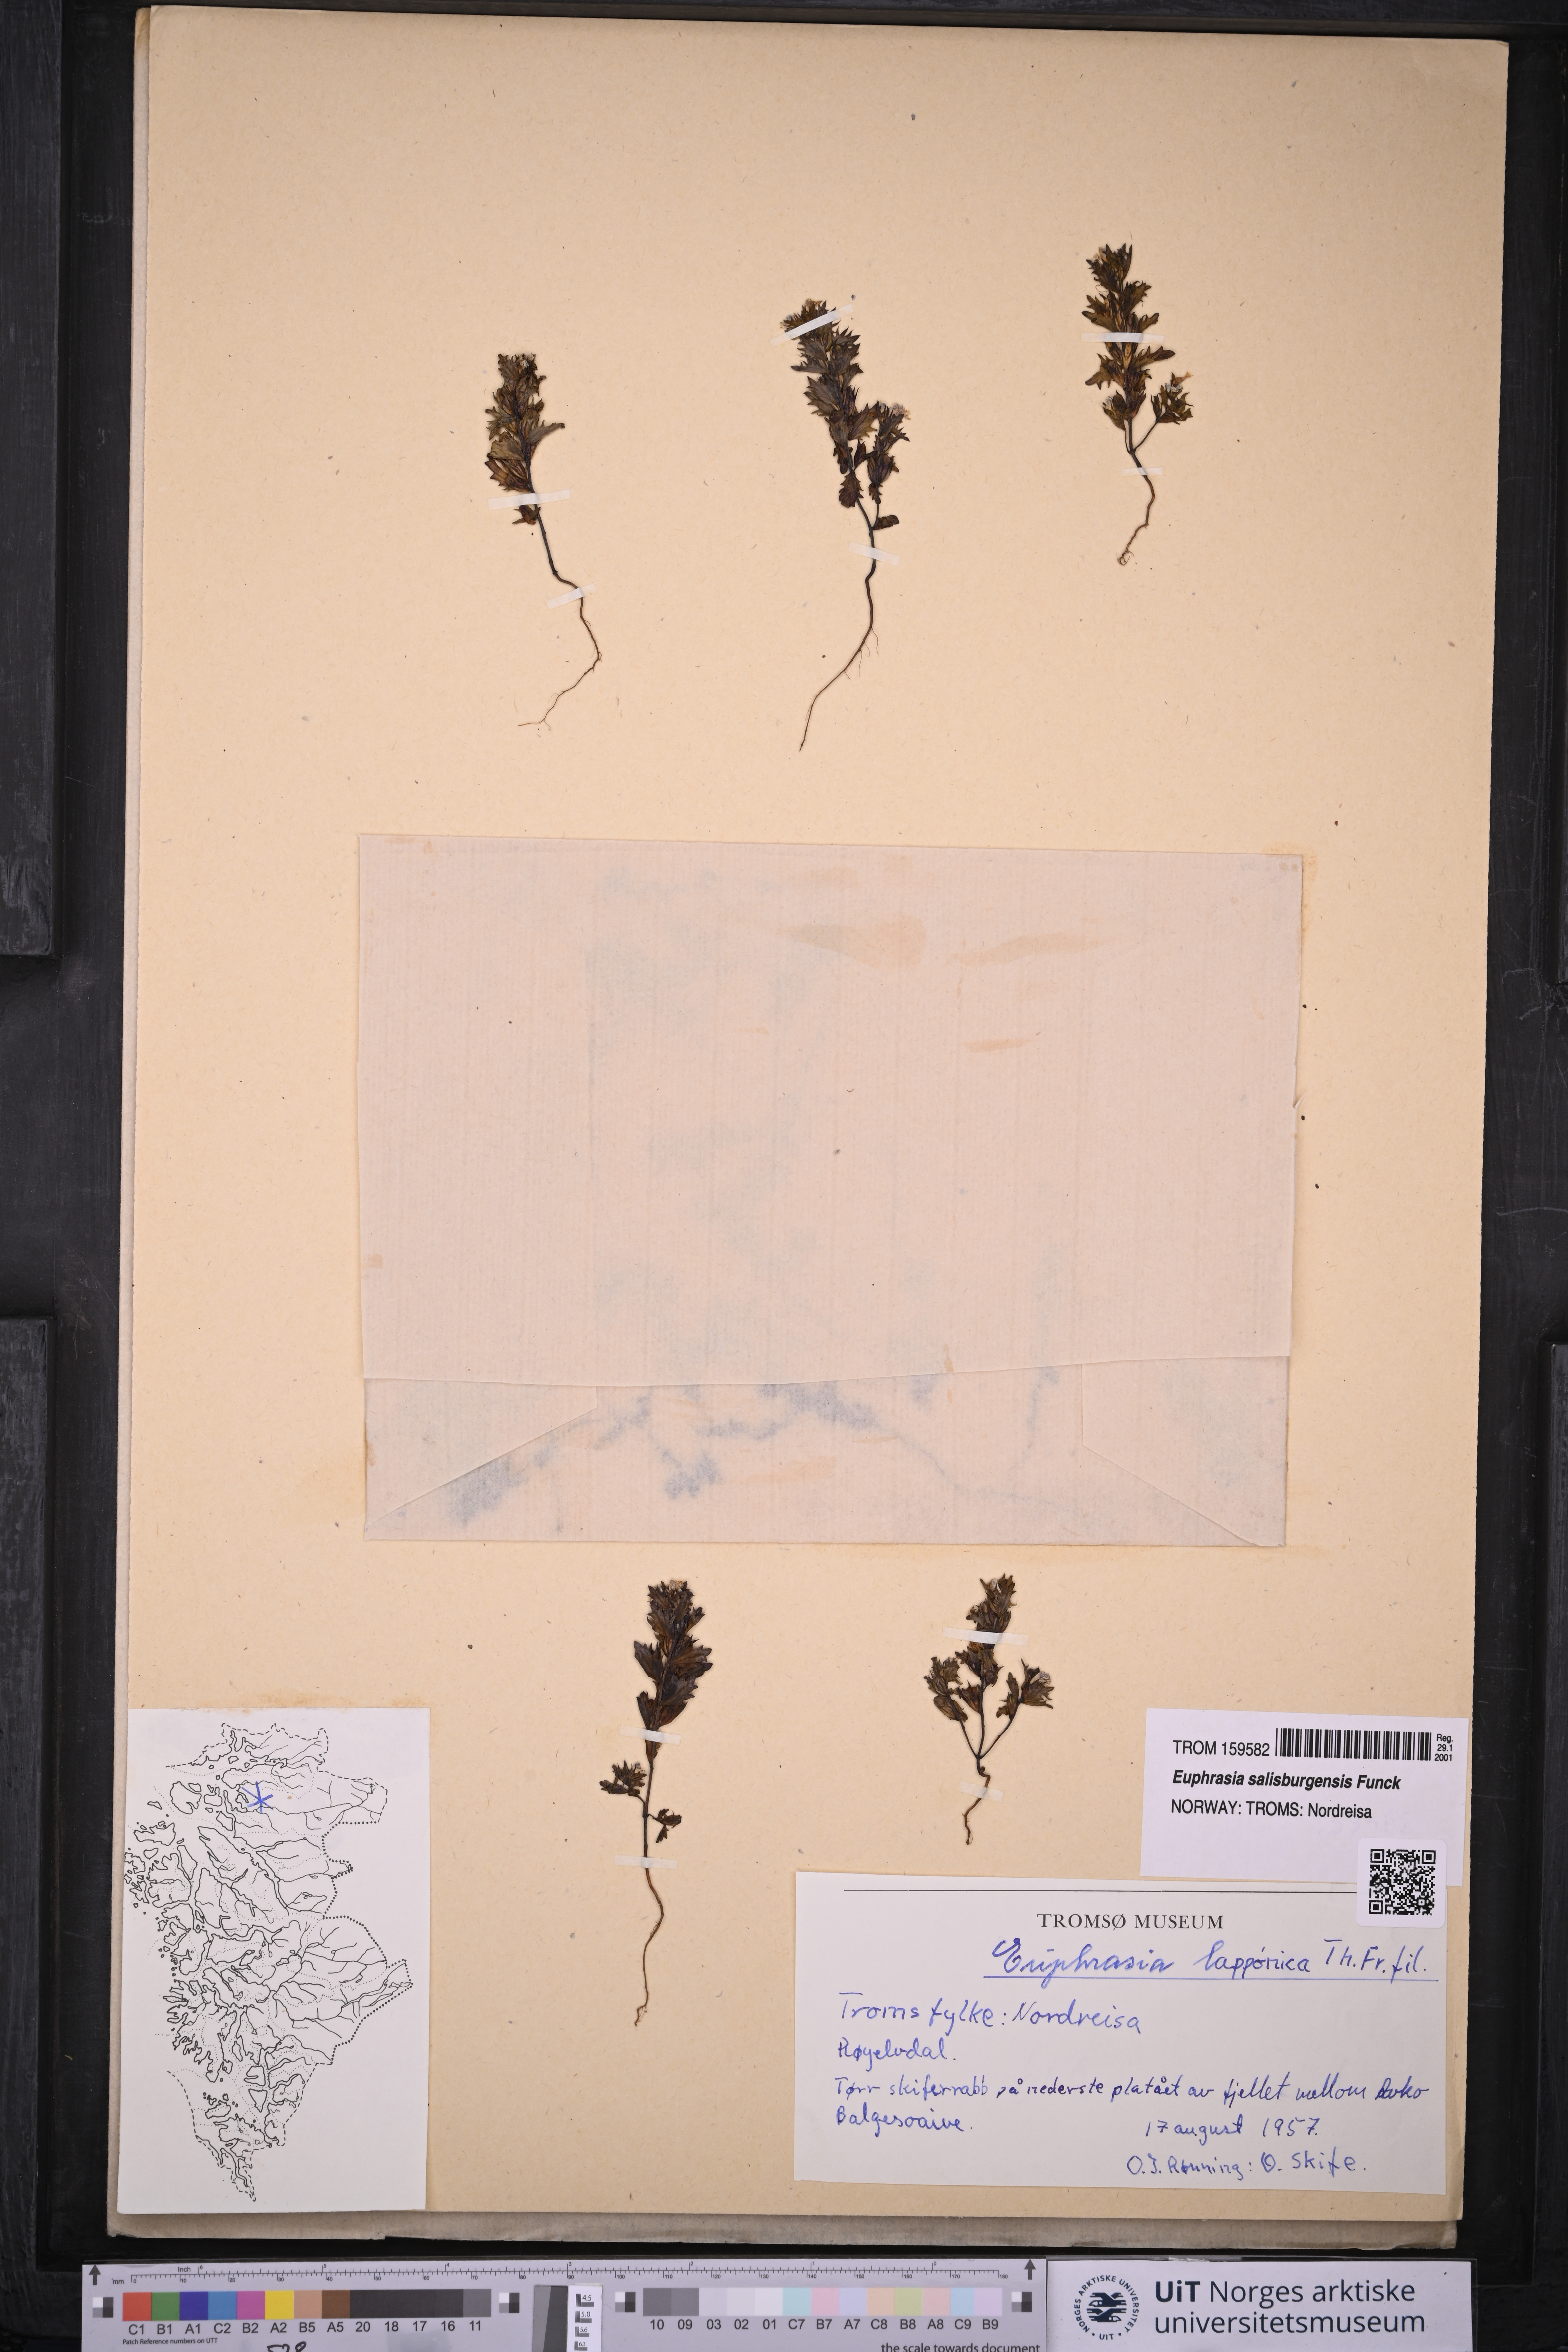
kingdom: Plantae
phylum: Tracheophyta
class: Magnoliopsida
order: Lamiales
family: Orobanchaceae
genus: Euphrasia
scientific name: Euphrasia salisburgensis
